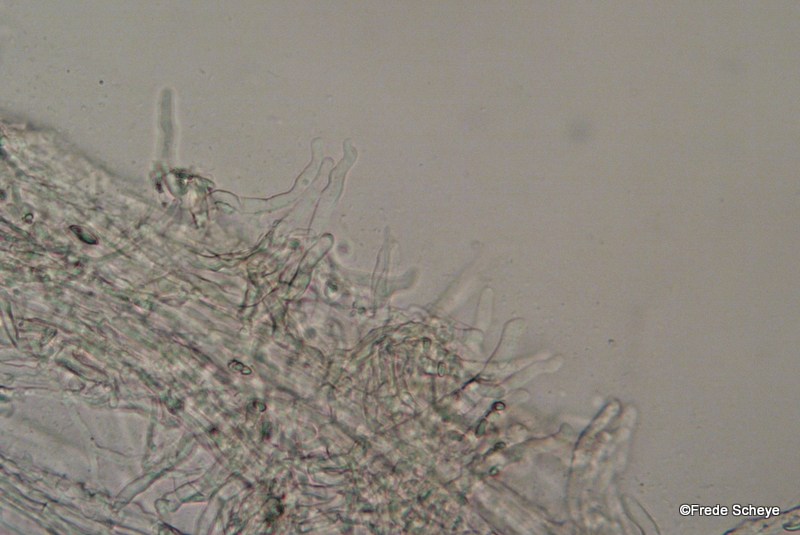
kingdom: Fungi
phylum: Basidiomycota
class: Agaricomycetes
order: Agaricales
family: Porotheleaceae
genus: Phloeomana
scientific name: Phloeomana speirea
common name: kvist-huesvamp
